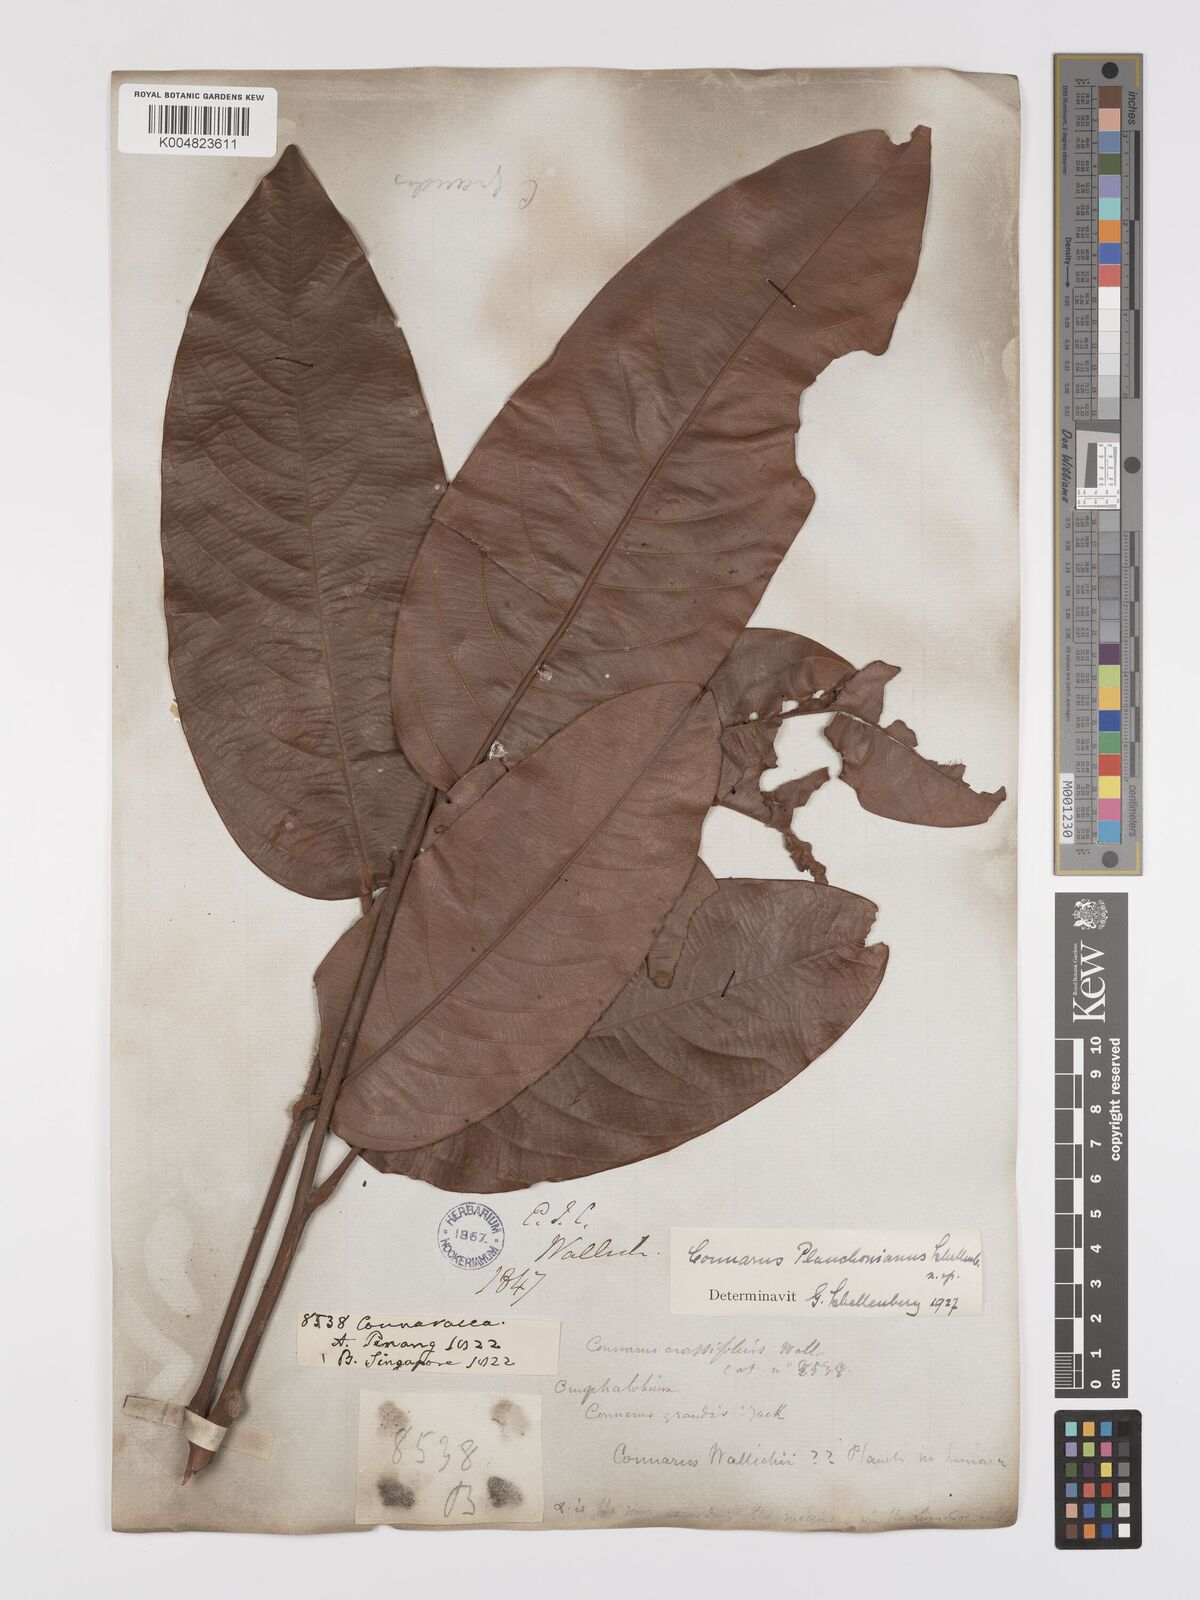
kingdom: Plantae
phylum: Tracheophyta
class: Magnoliopsida
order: Oxalidales
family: Connaraceae
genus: Connarus
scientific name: Connarus planchonianus
